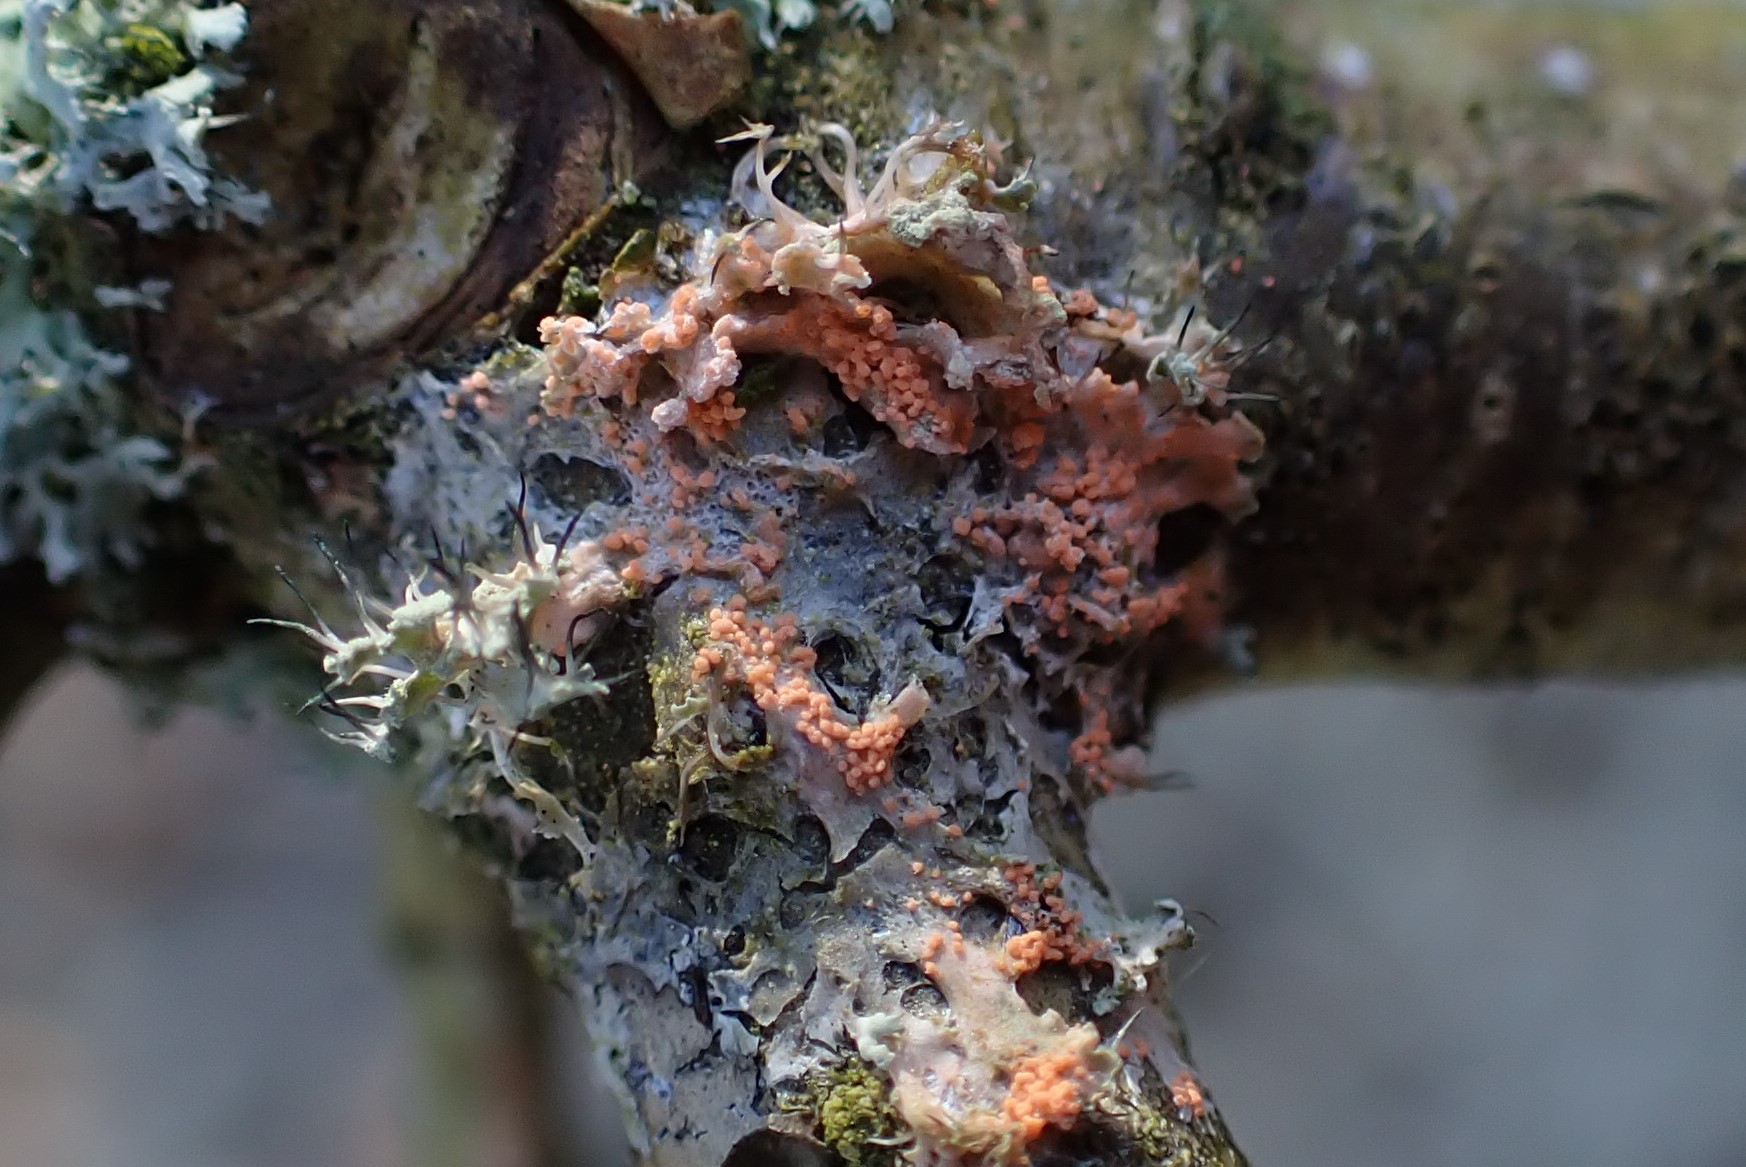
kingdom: Fungi
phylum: Basidiomycota
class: Agaricomycetes
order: Corticiales
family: Corticiaceae
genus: Erythricium
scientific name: Erythricium aurantiacum
